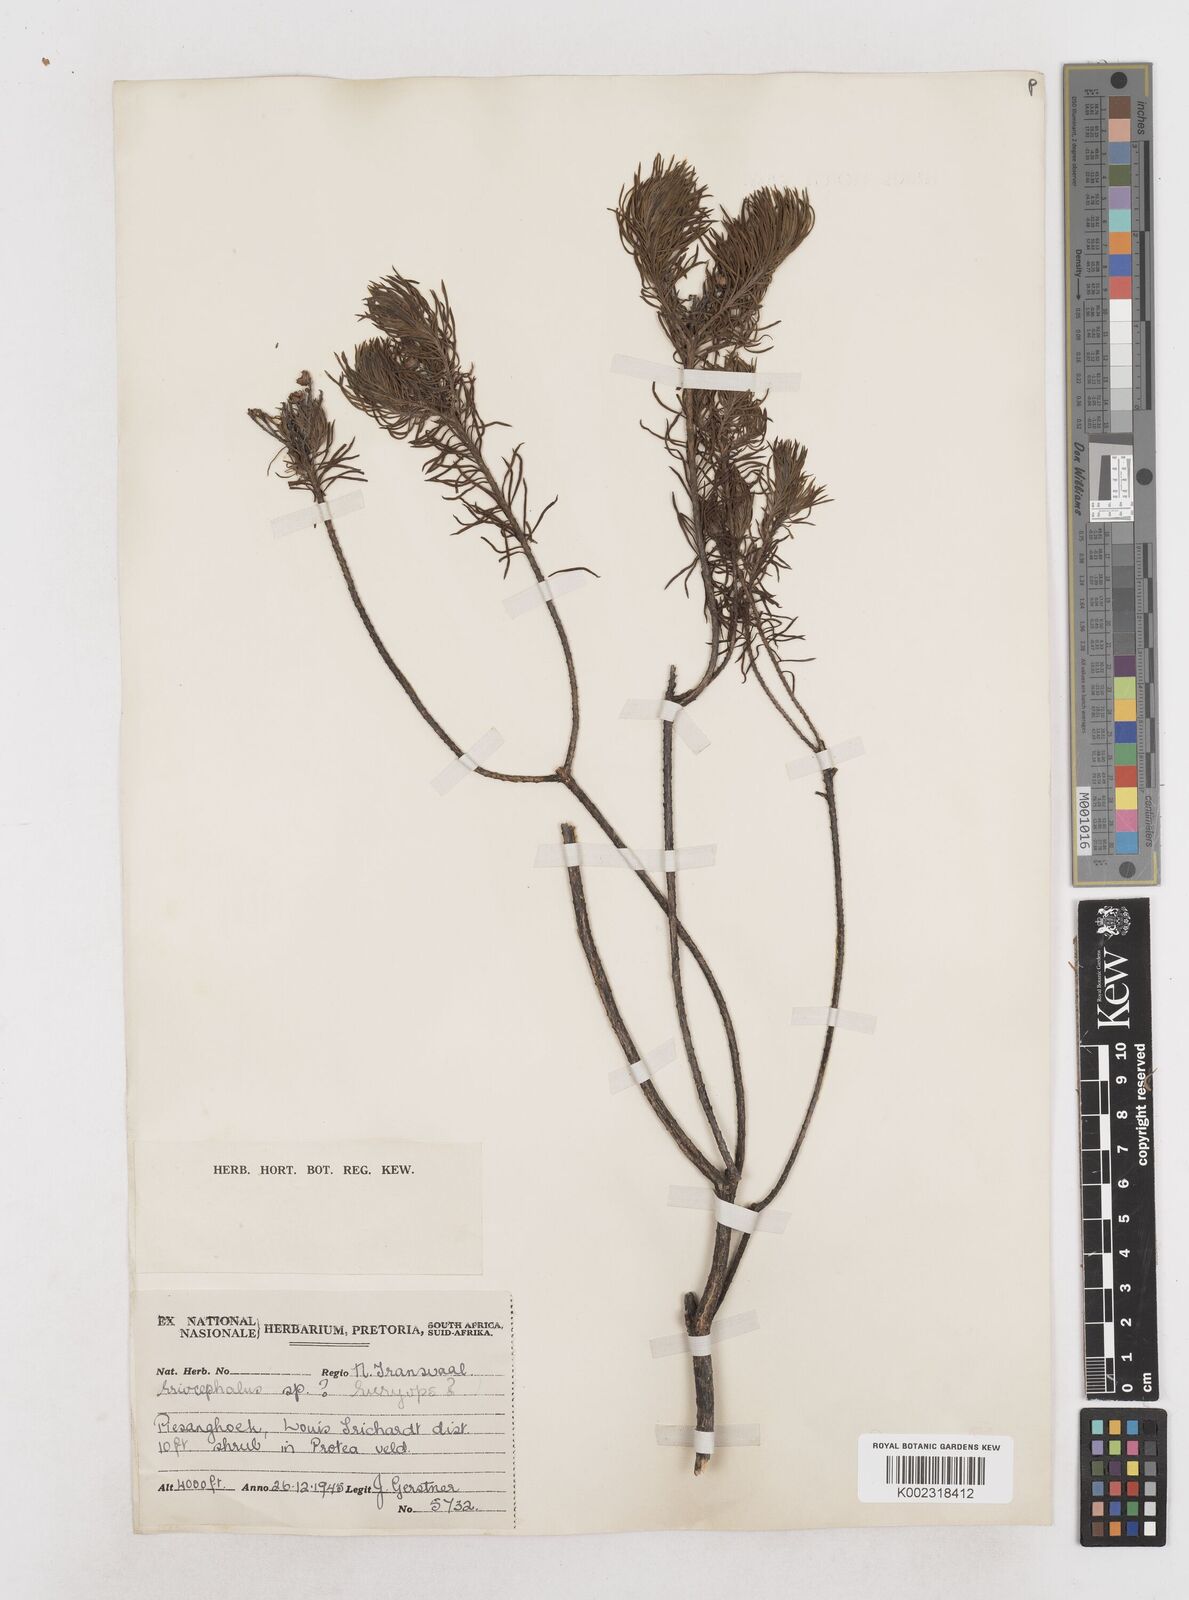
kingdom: Plantae
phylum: Tracheophyta
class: Magnoliopsida
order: Asterales
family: Asteraceae
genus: Eriocephalus
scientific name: Eriocephalus
